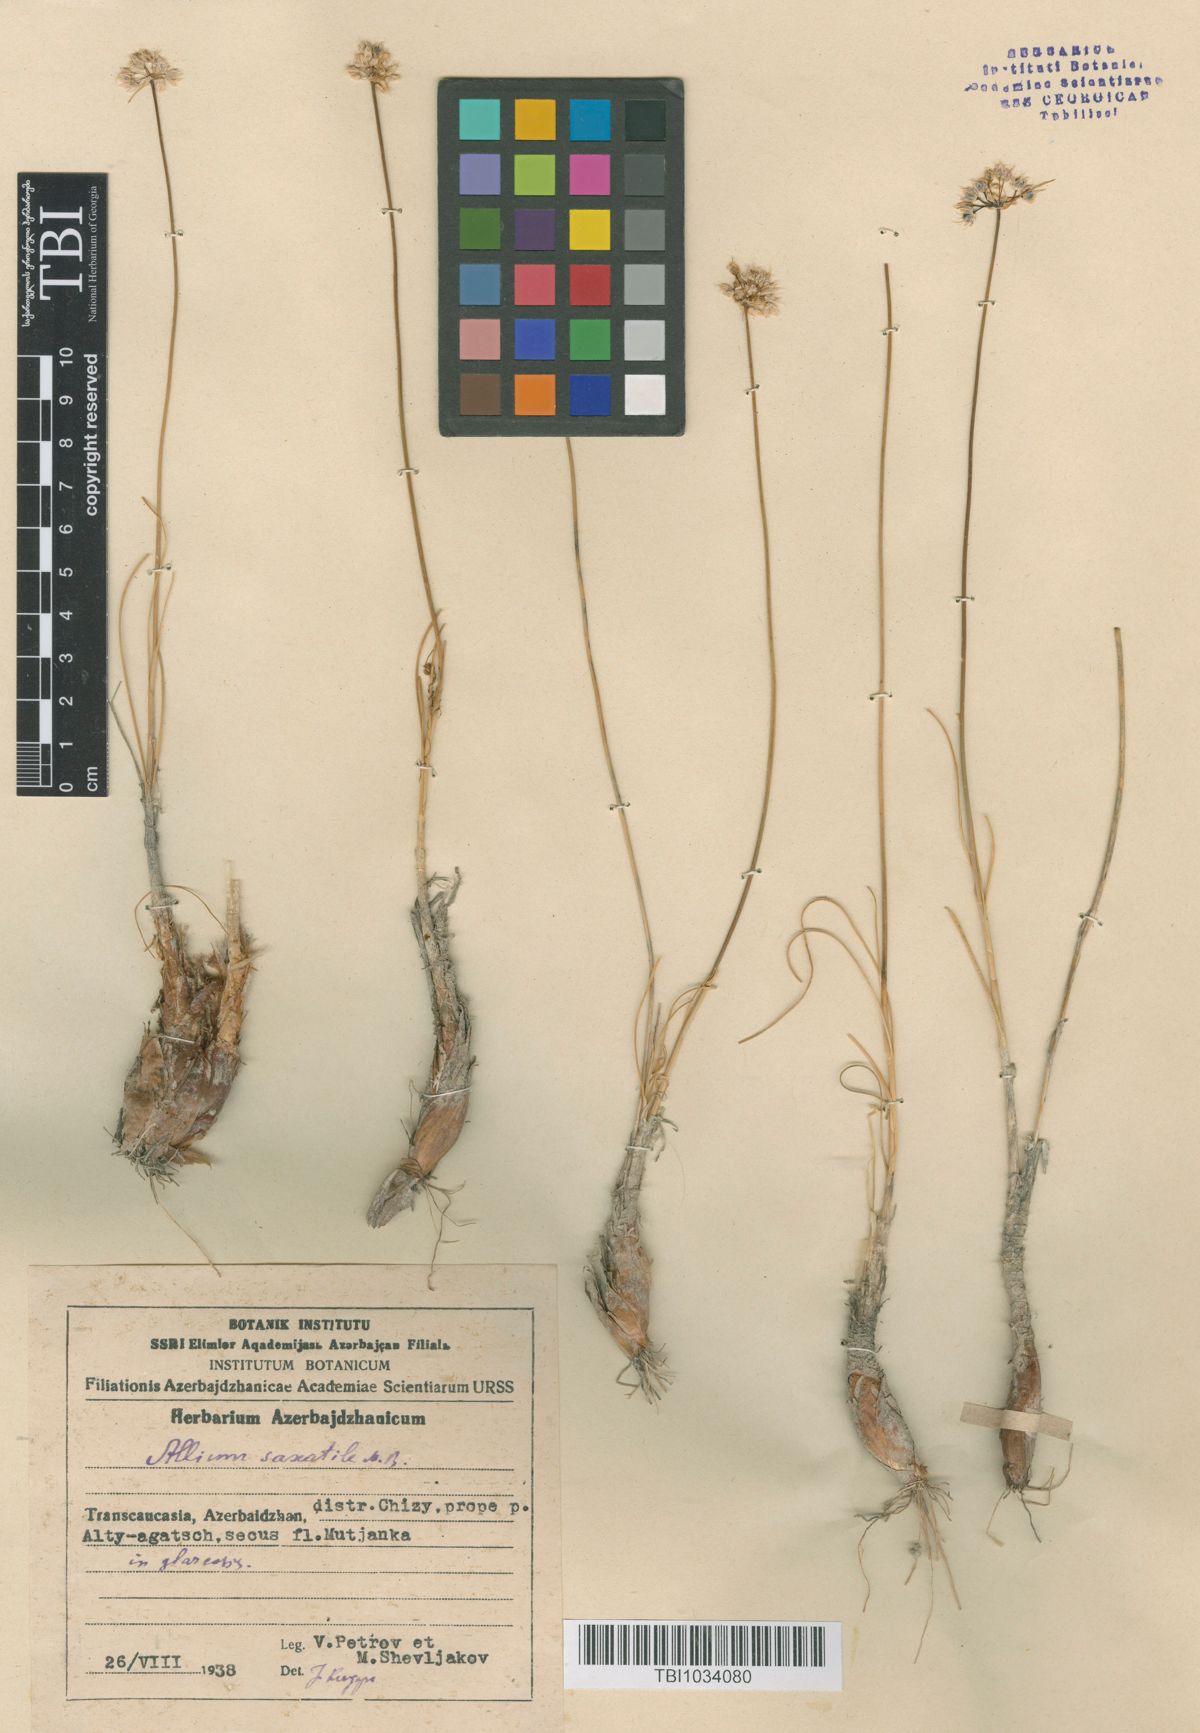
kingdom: Plantae
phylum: Tracheophyta
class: Liliopsida
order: Asparagales
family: Amaryllidaceae
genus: Allium
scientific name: Allium saxatile
